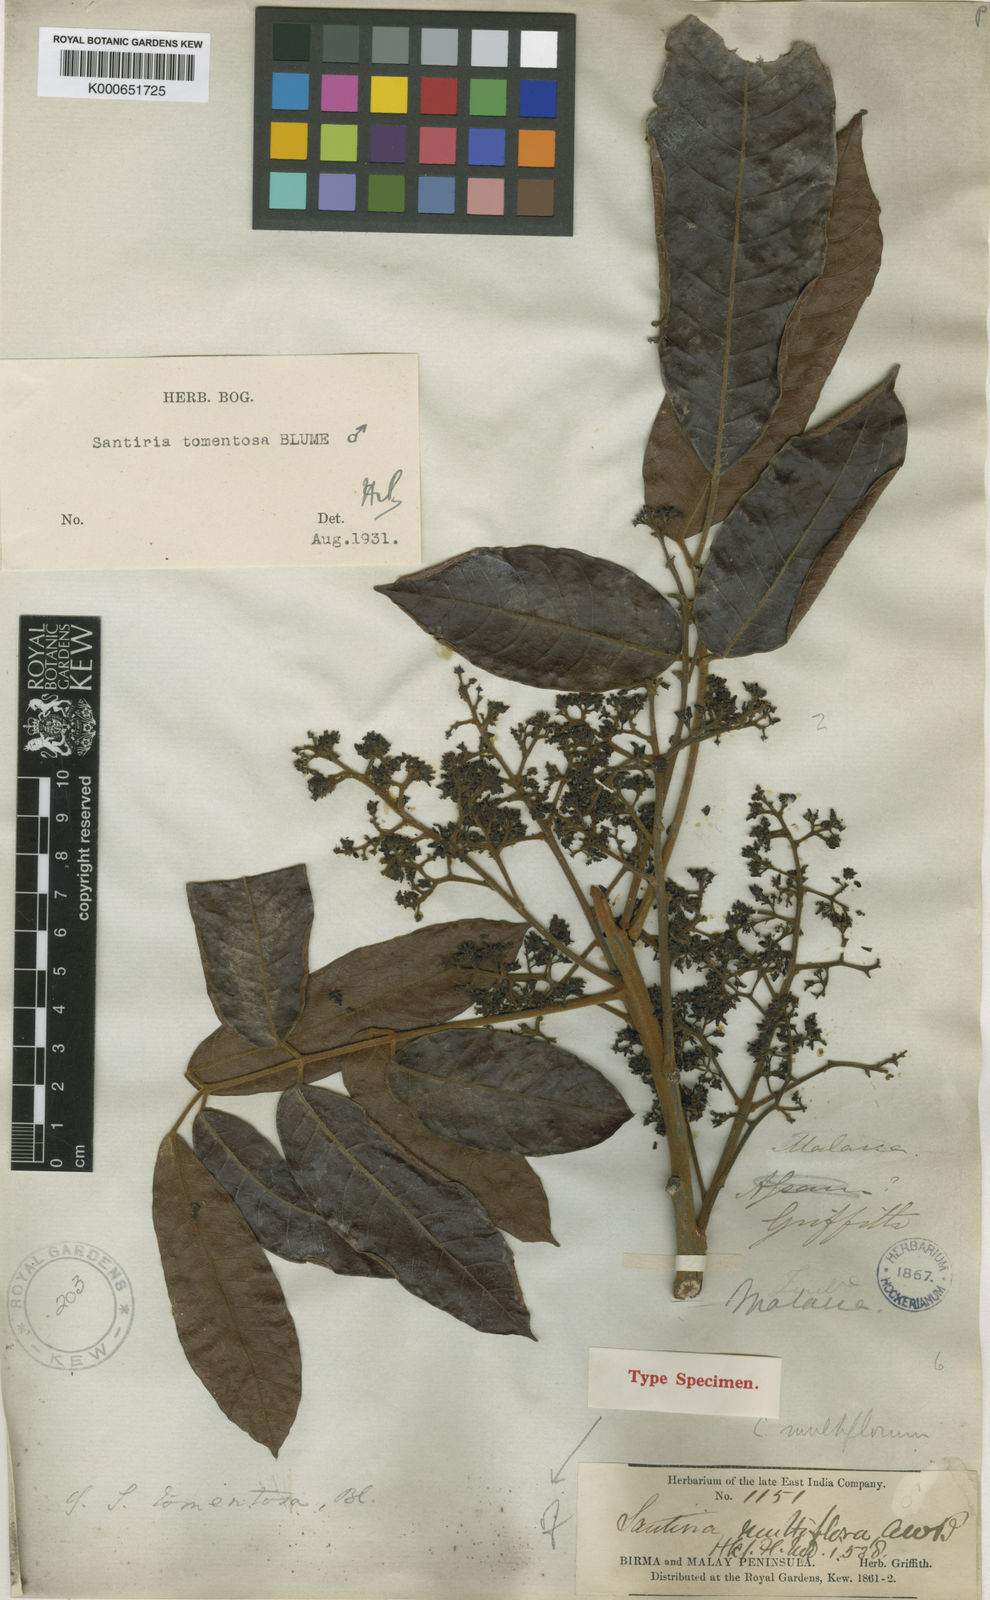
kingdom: Plantae
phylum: Tracheophyta
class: Magnoliopsida
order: Sapindales
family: Burseraceae
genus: Santiria
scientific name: Santiria tomentosa
